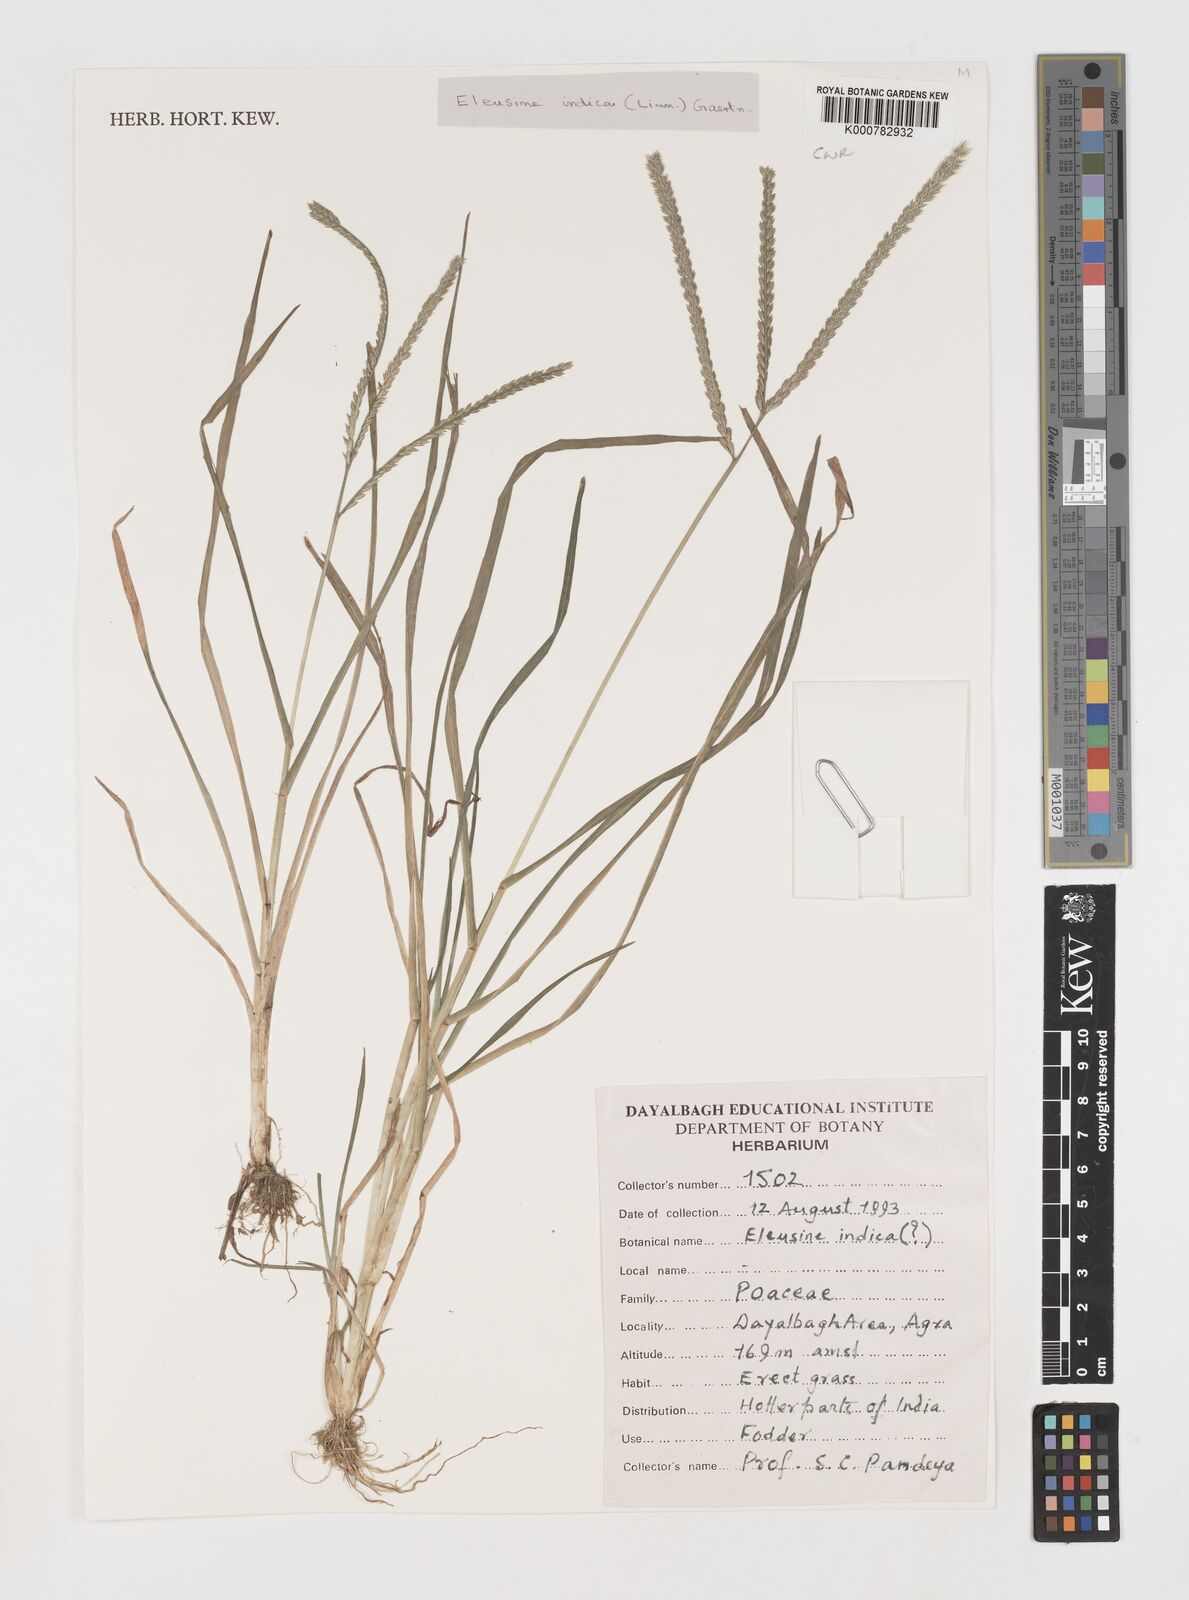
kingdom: Plantae
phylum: Tracheophyta
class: Liliopsida
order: Poales
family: Poaceae
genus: Eleusine
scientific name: Eleusine indica
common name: Yard-grass
